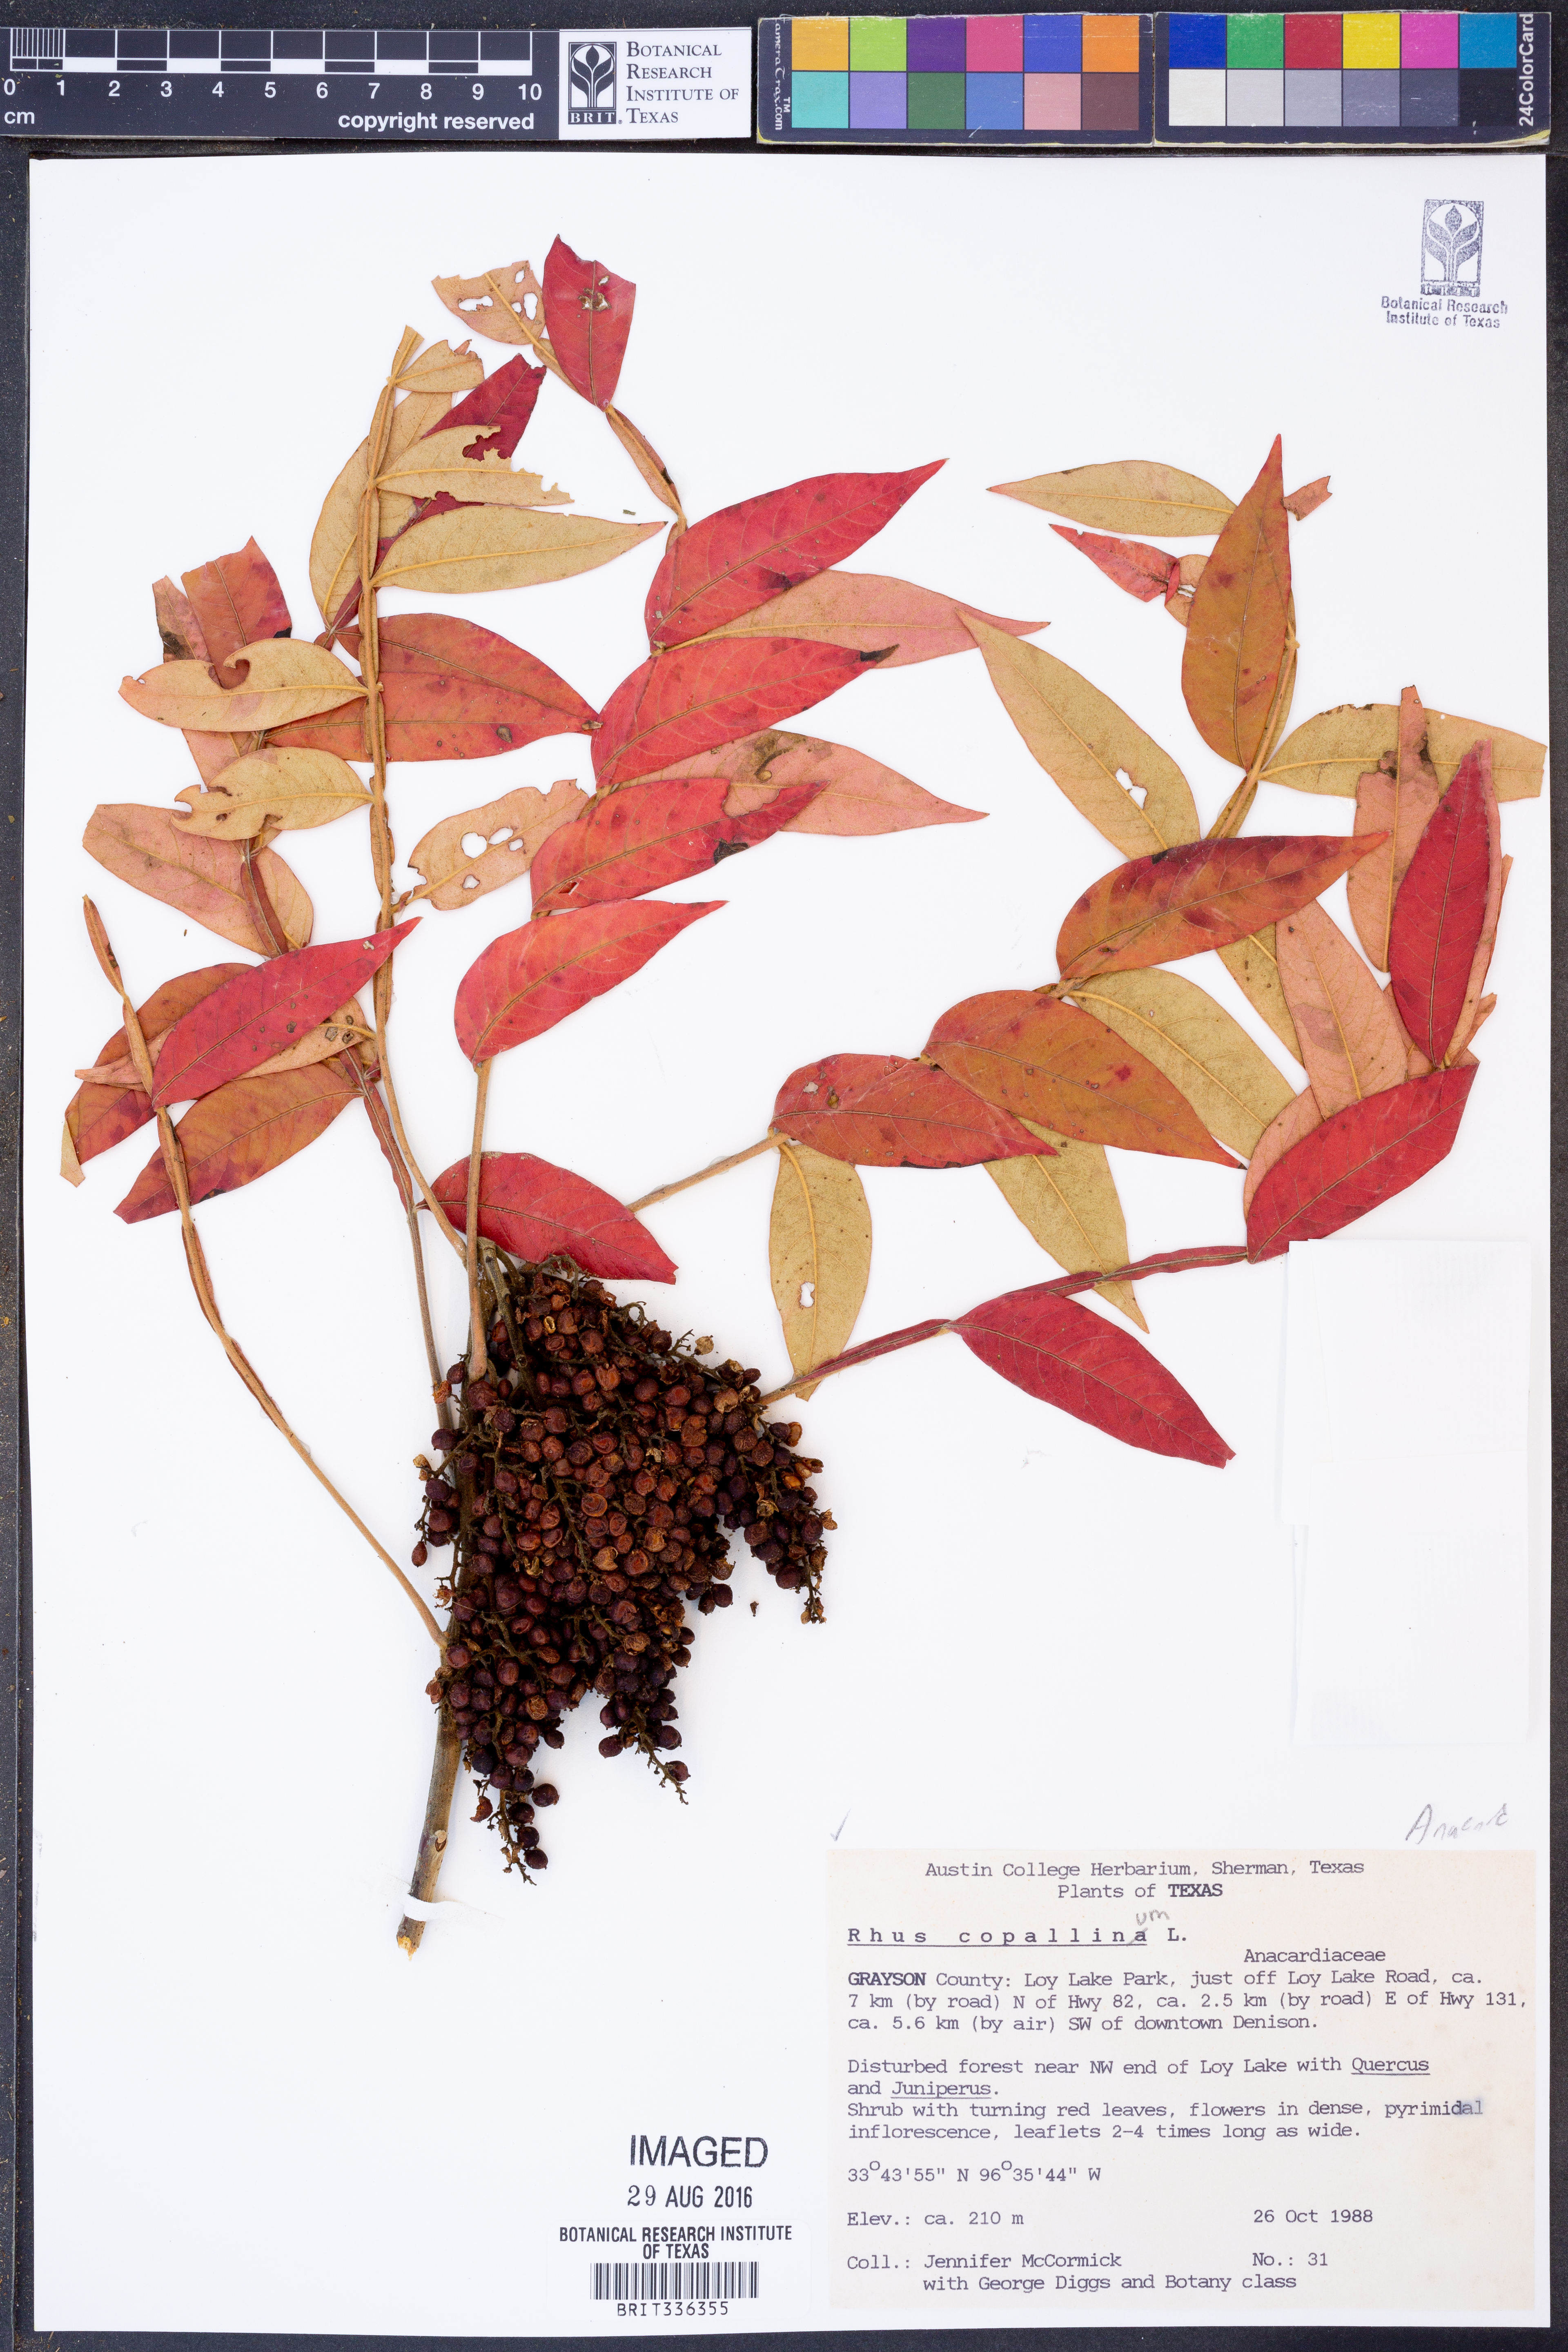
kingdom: Plantae
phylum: Tracheophyta
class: Magnoliopsida
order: Sapindales
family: Anacardiaceae
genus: Rhus
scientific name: Rhus copallina
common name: Shining sumac
